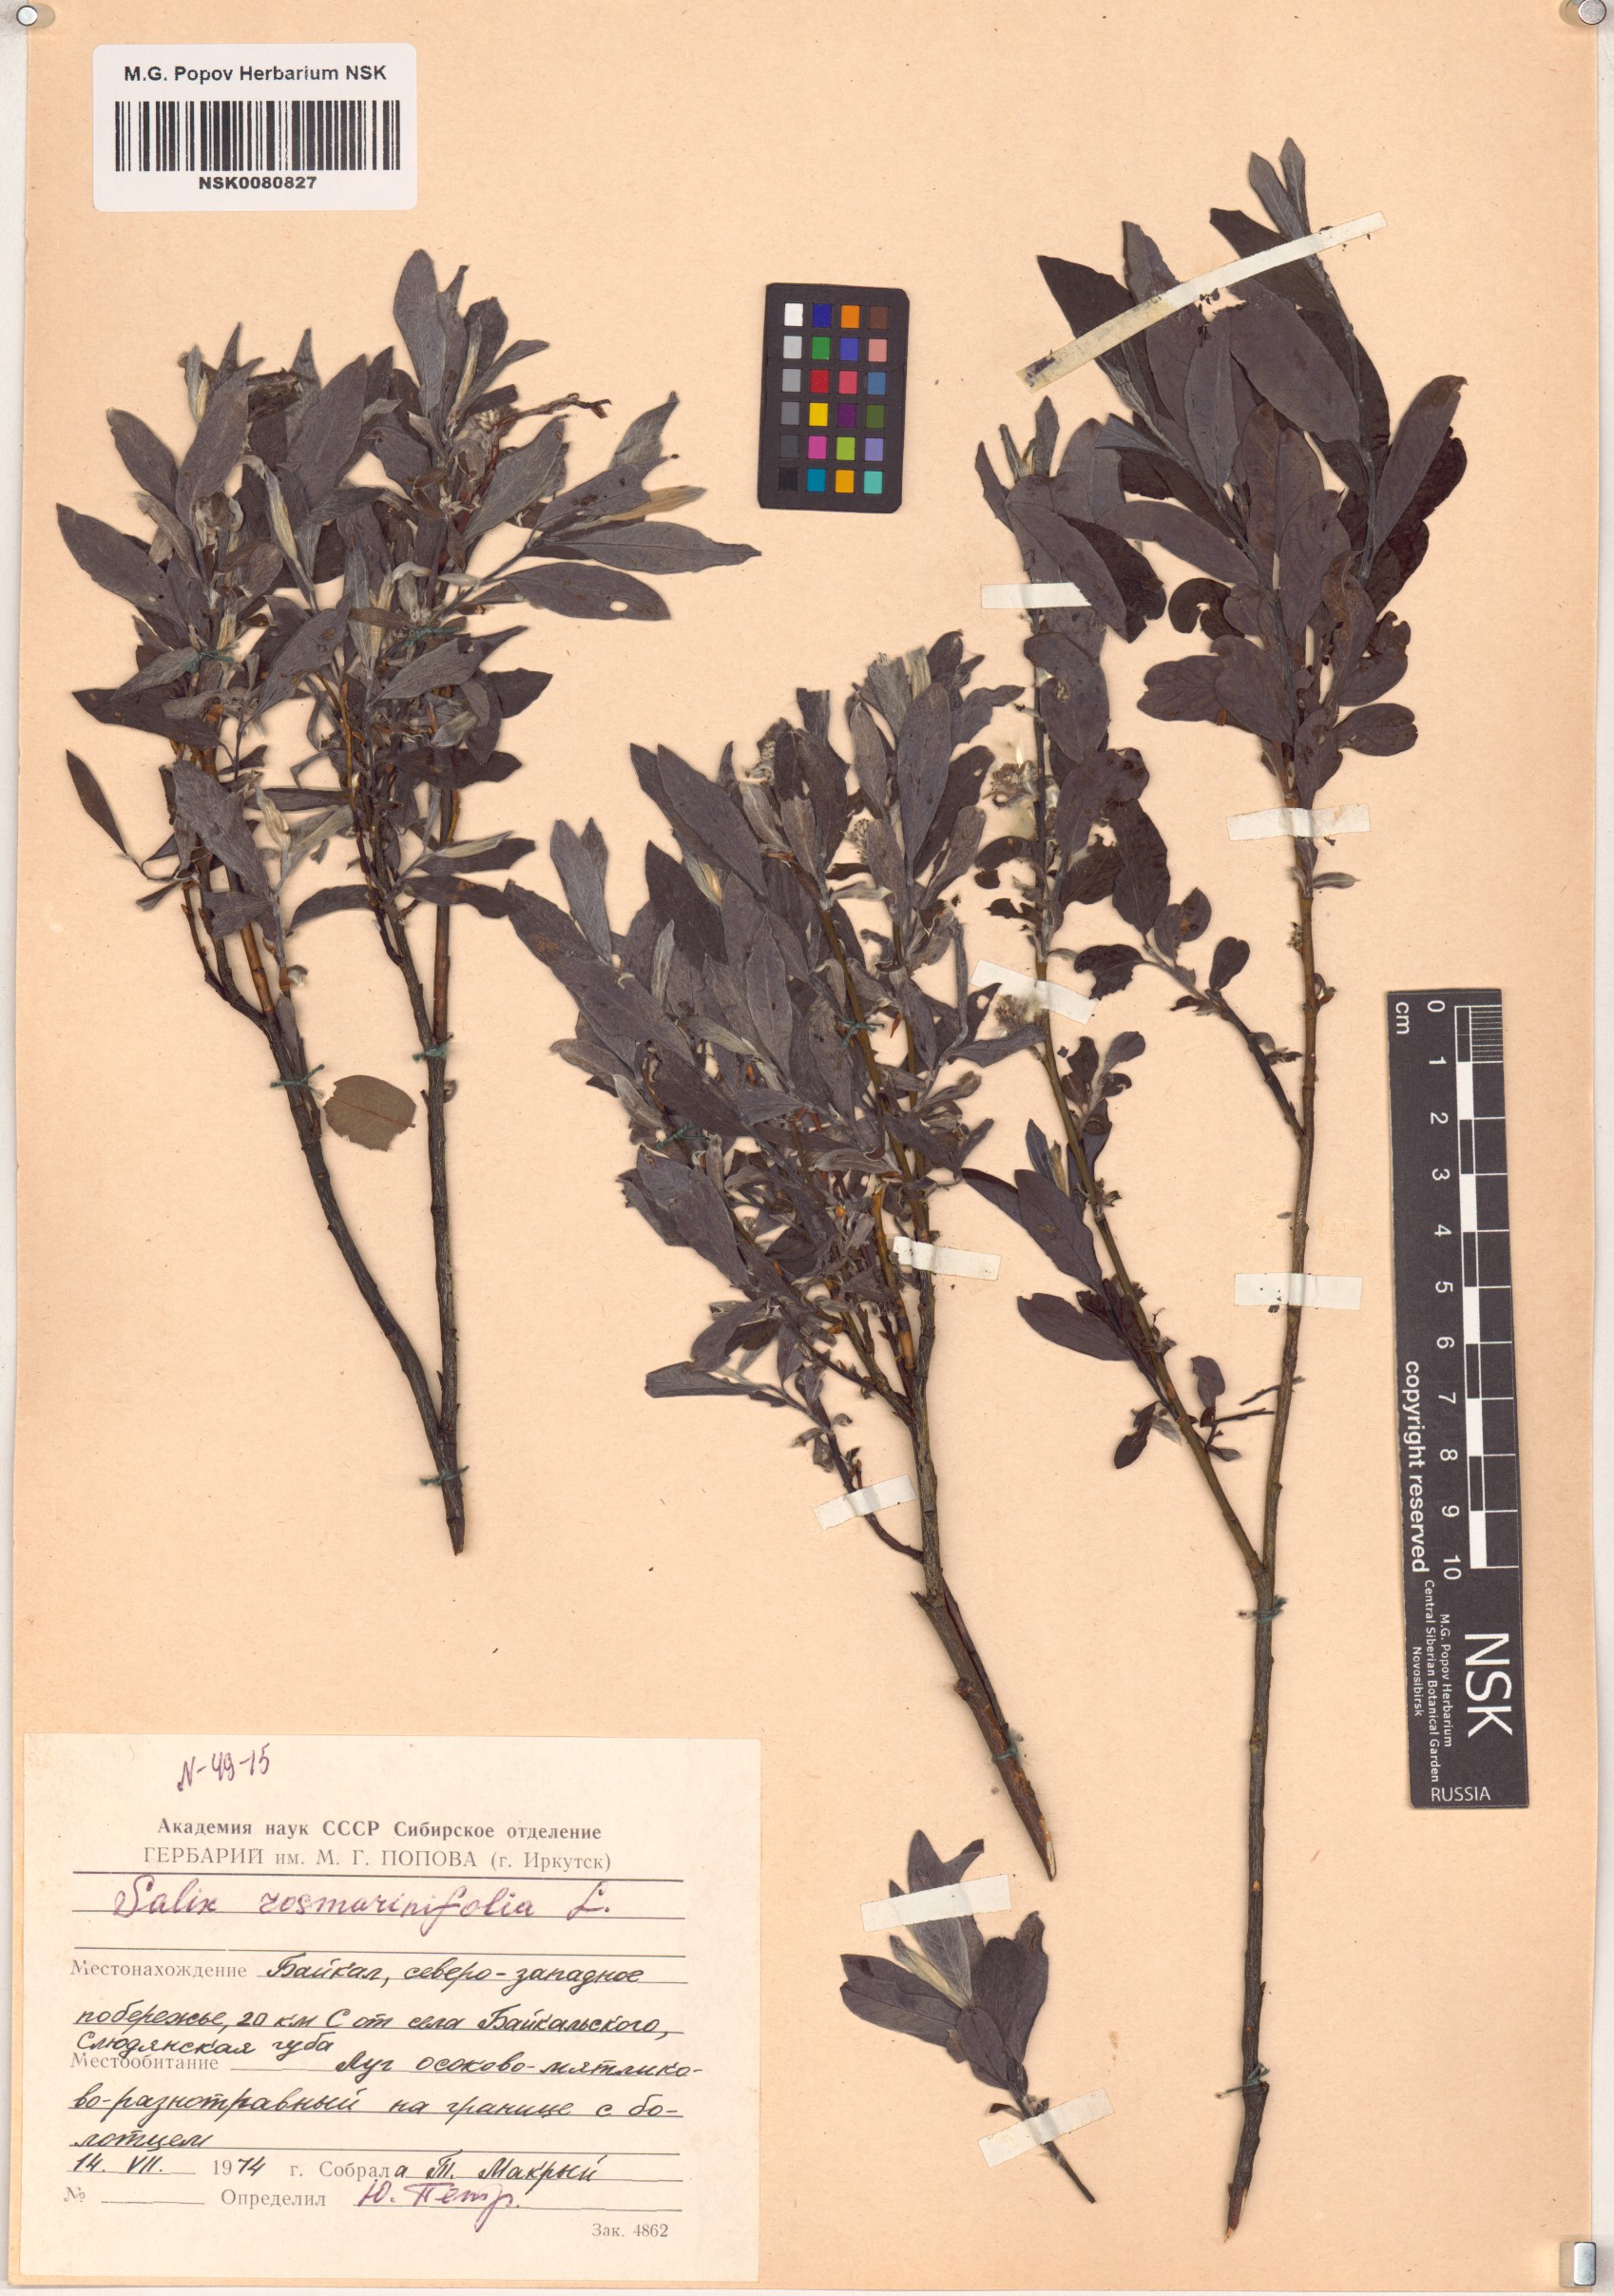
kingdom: Plantae
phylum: Tracheophyta
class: Magnoliopsida
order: Malpighiales
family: Salicaceae
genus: Salix
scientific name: Salix rosmarinifolia
